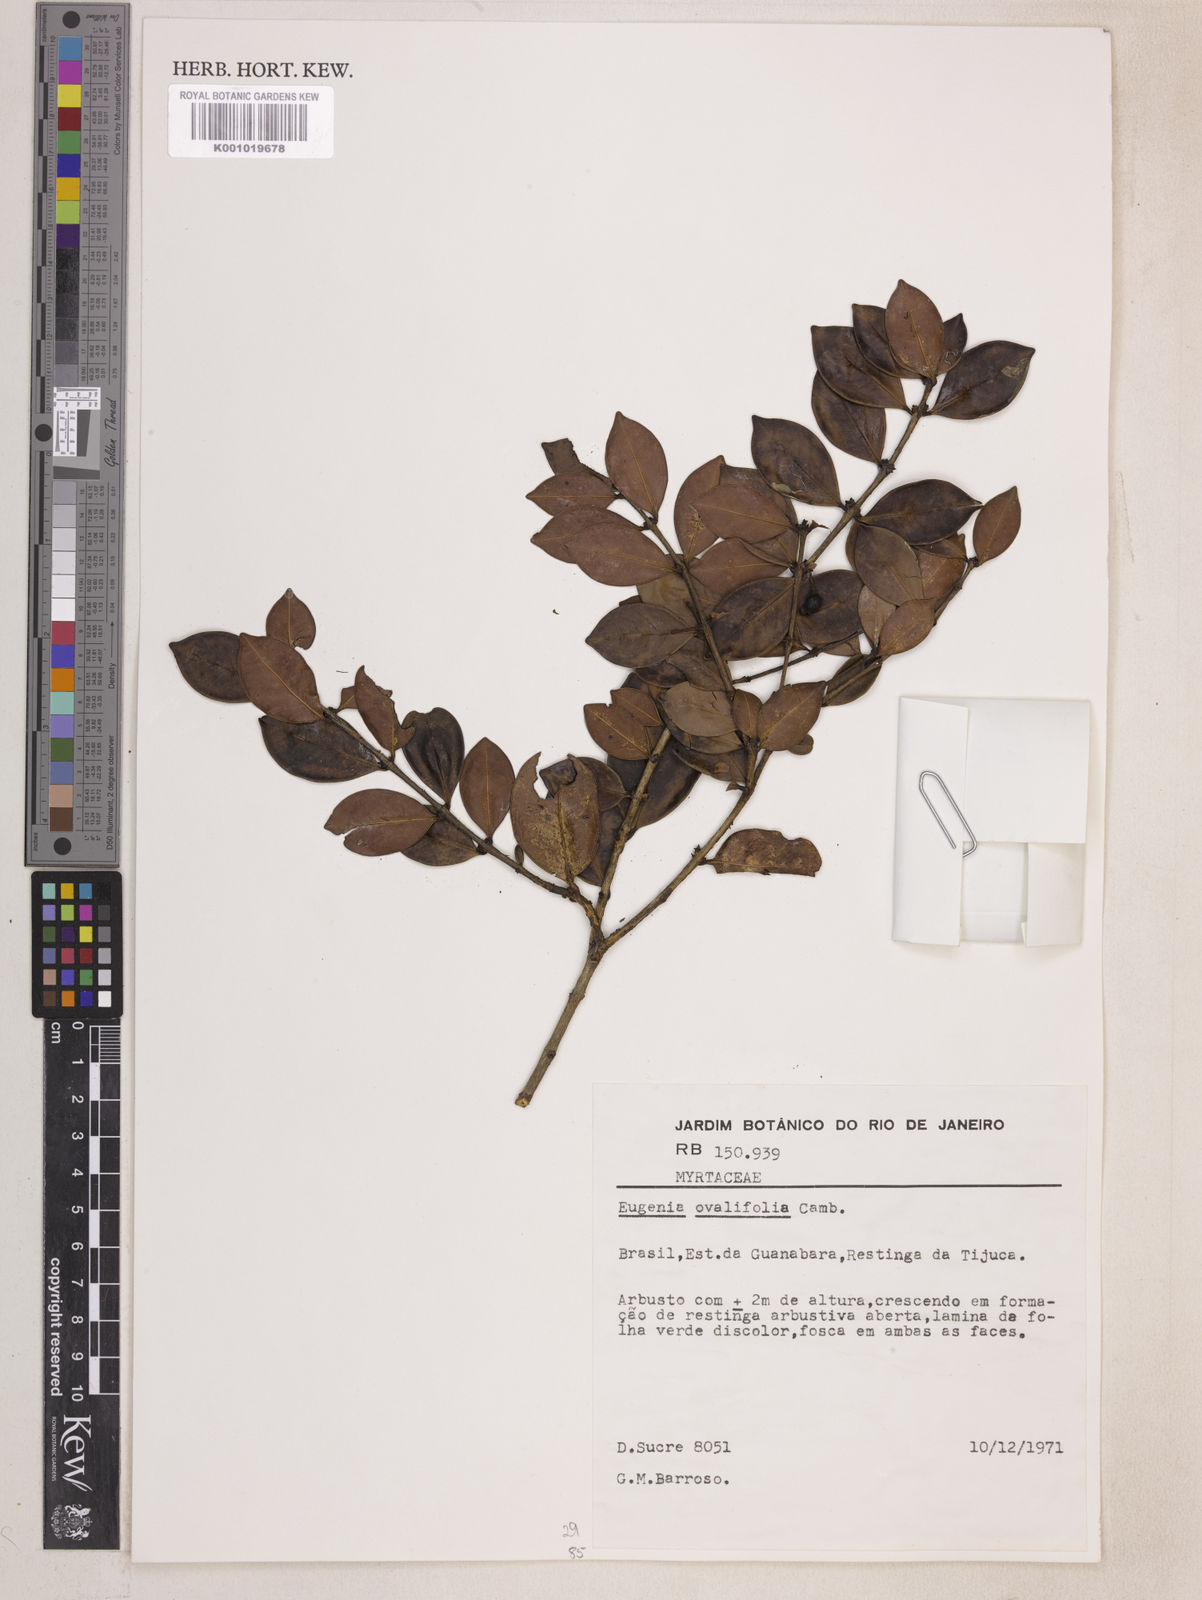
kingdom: Plantae
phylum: Tracheophyta
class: Magnoliopsida
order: Myrtales
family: Myrtaceae
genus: Eugenia
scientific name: Eugenia punicifolia
